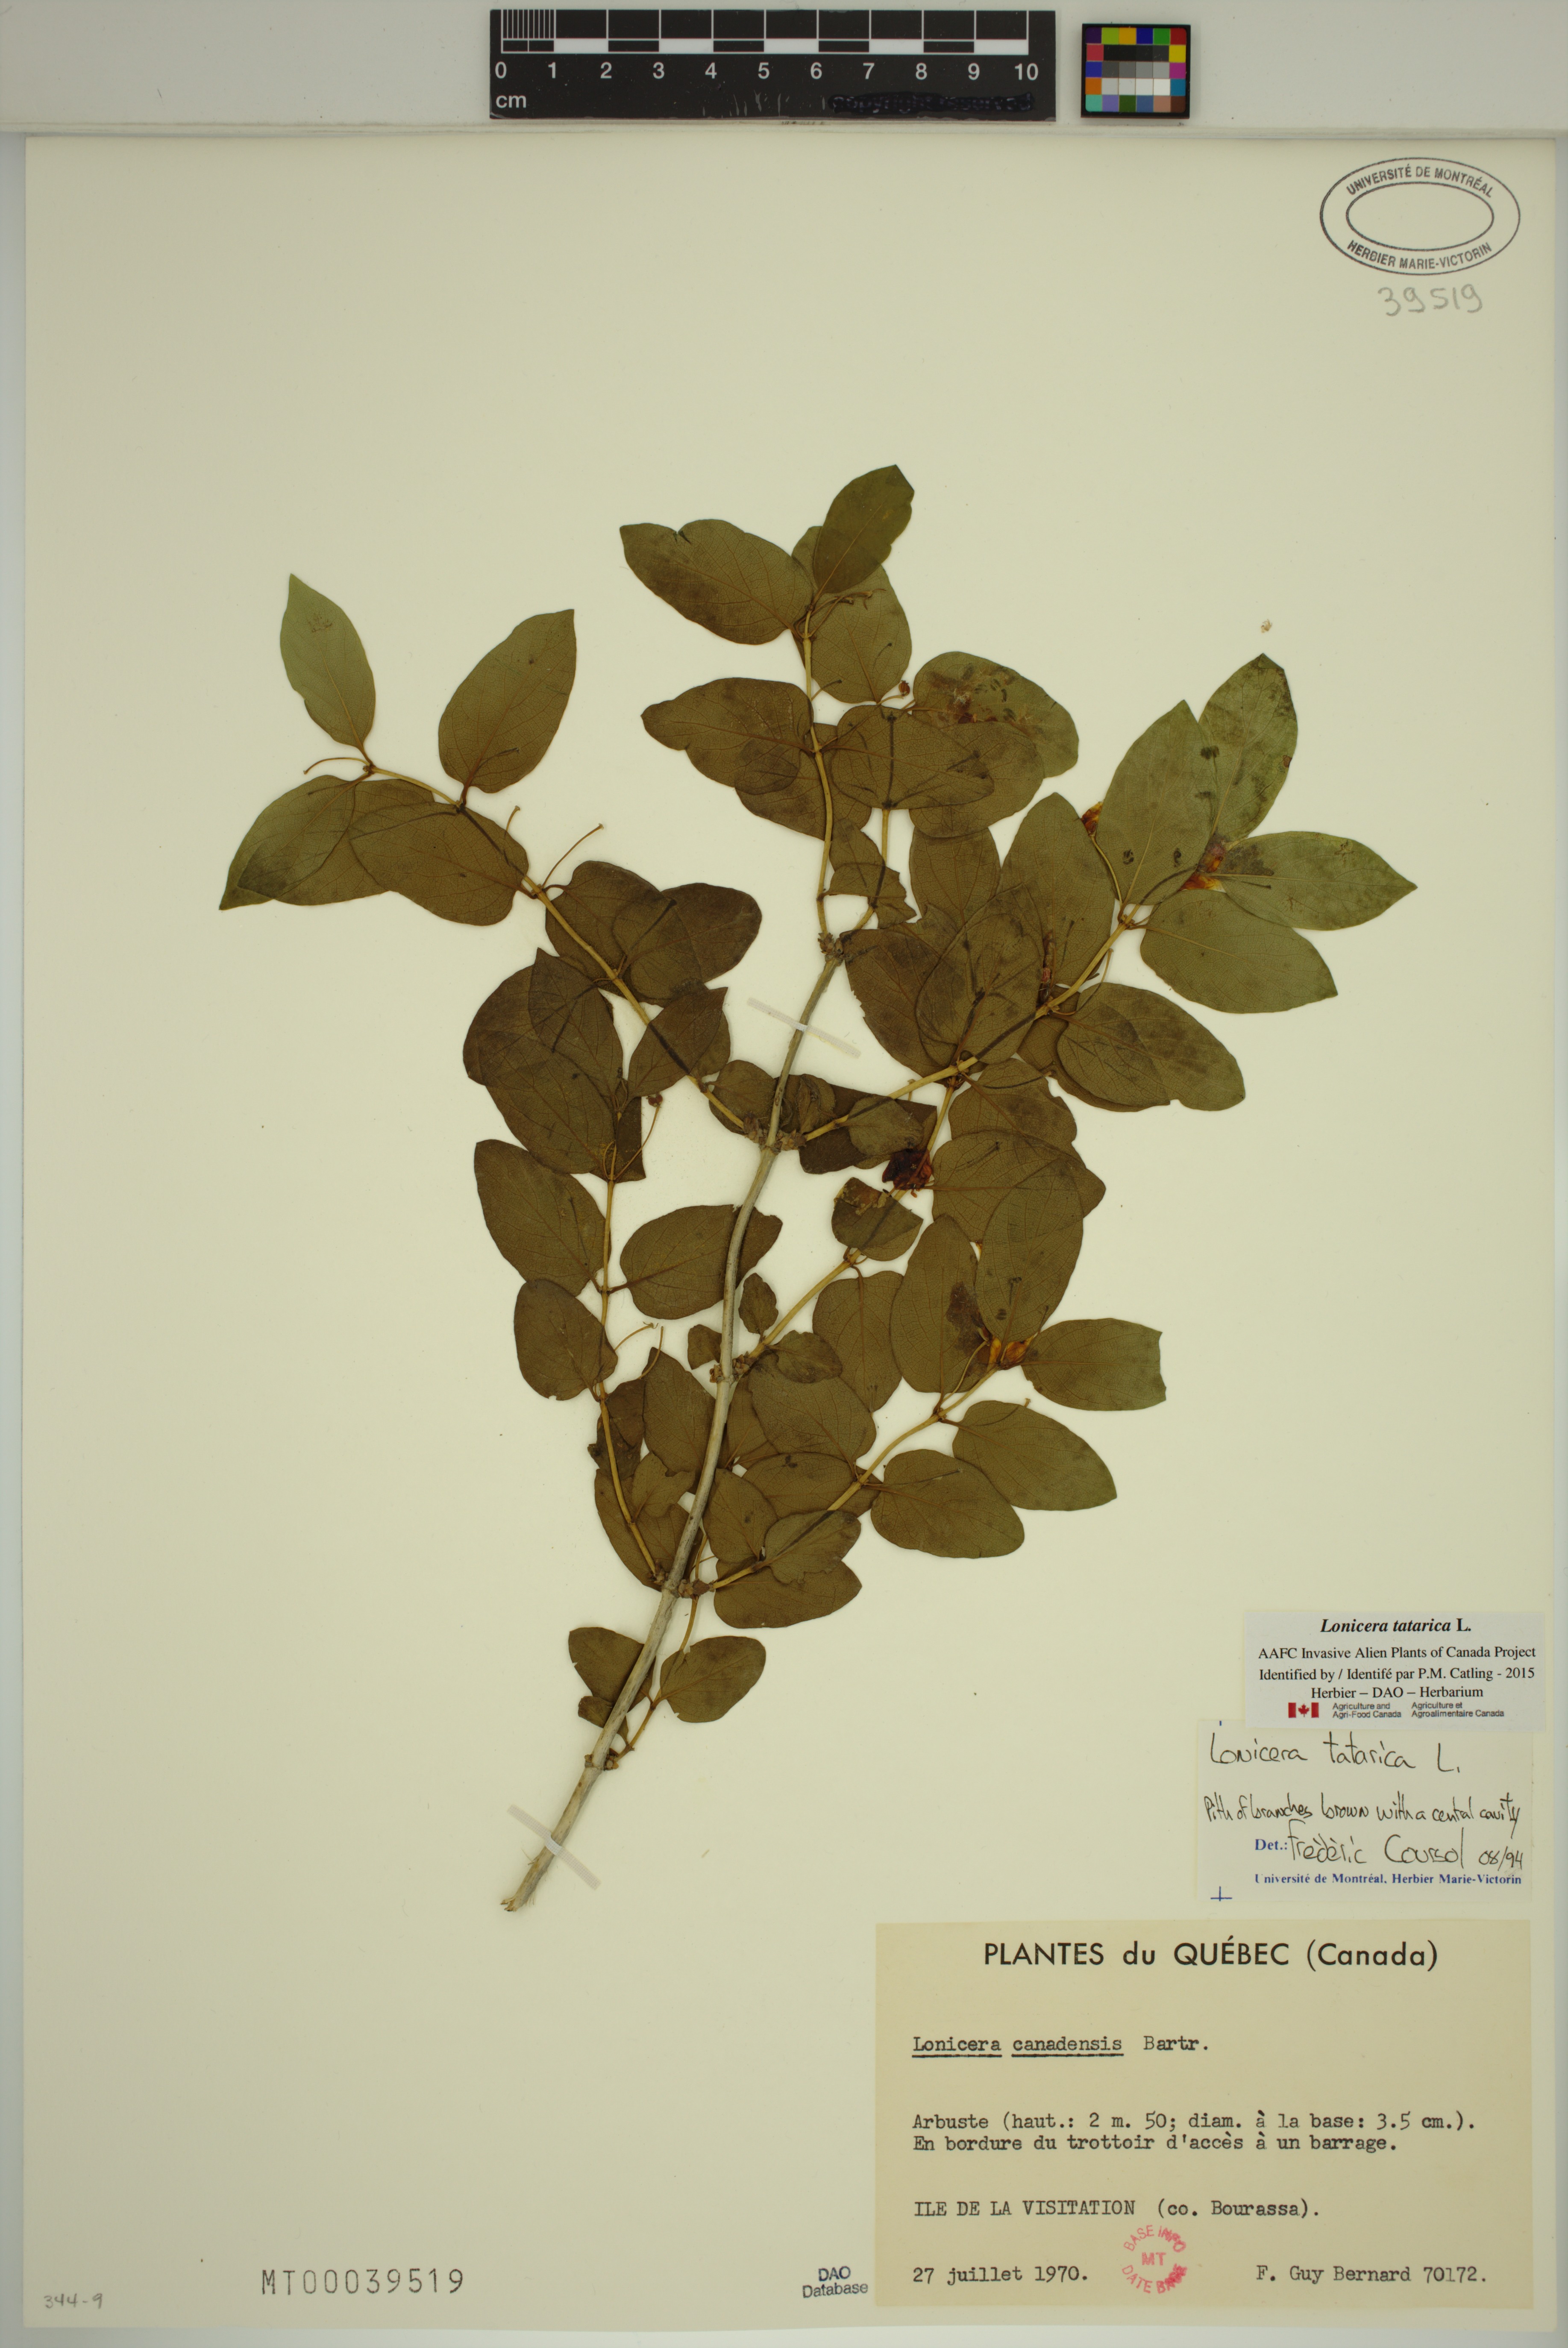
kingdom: Plantae
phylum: Tracheophyta
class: Magnoliopsida
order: Dipsacales
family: Caprifoliaceae
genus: Lonicera
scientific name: Lonicera tatarica
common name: Tatarian honeysuckle
